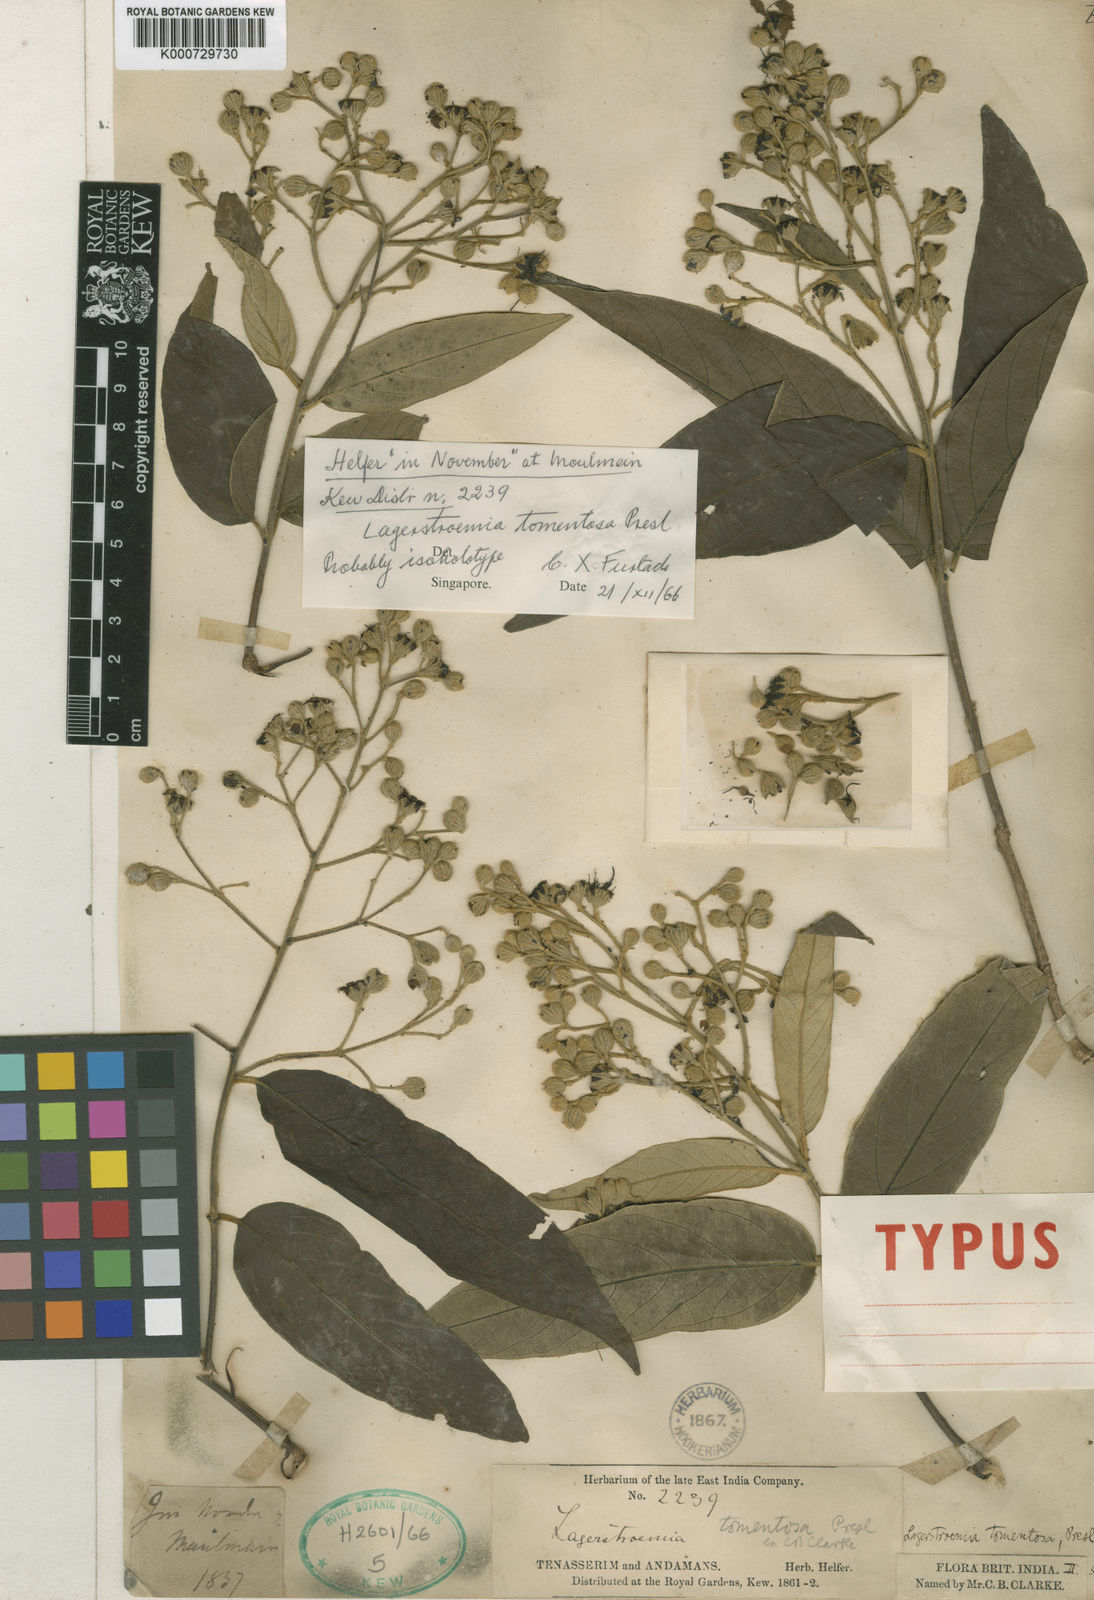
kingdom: Plantae
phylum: Tracheophyta
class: Magnoliopsida
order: Myrtales
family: Lythraceae
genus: Lagerstroemia
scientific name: Lagerstroemia tomentosa
